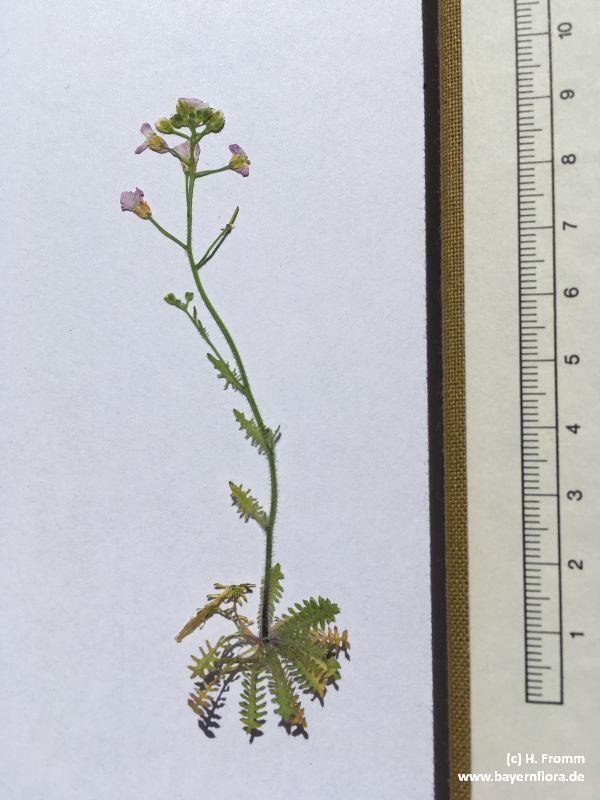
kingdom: Plantae
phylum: Tracheophyta
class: Magnoliopsida
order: Brassicales
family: Brassicaceae
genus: Arabidopsis
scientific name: Arabidopsis arenosa
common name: Sand rock-cress
